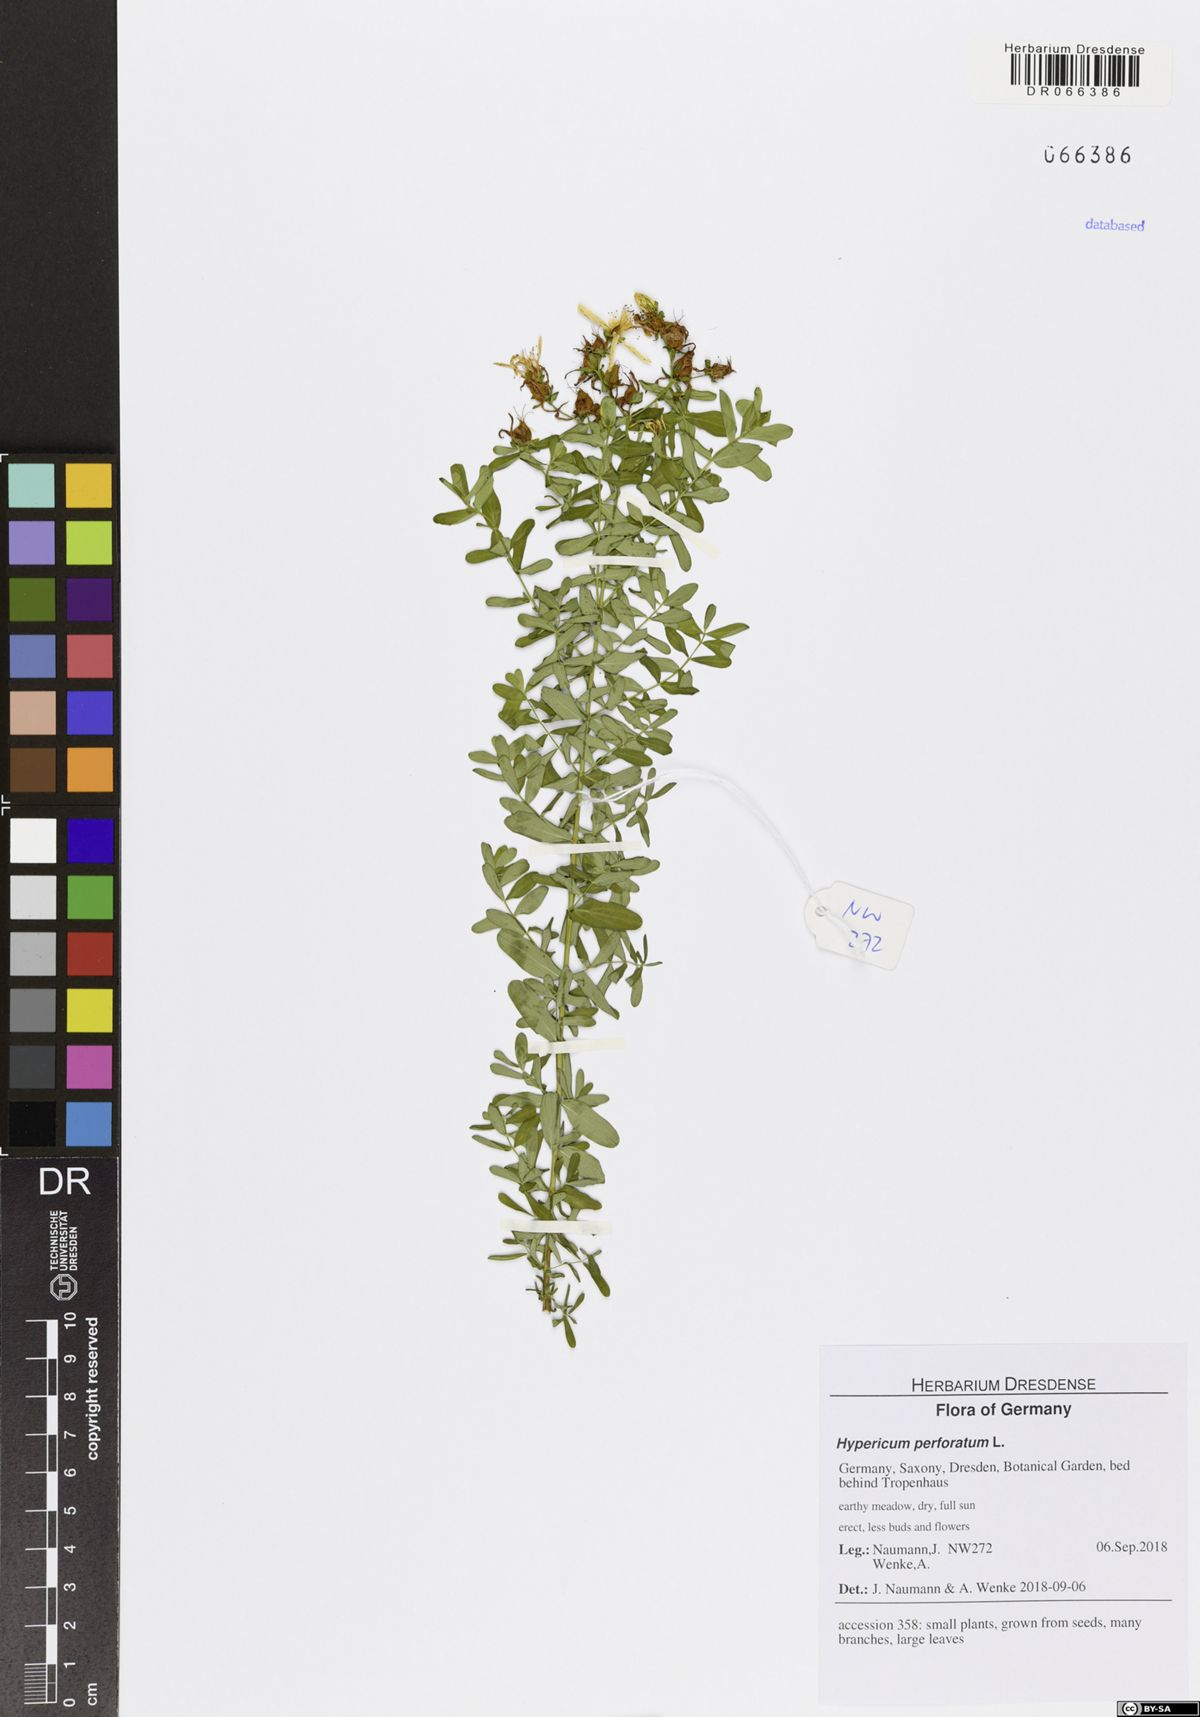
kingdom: Plantae
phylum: Tracheophyta
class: Magnoliopsida
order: Malpighiales
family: Hypericaceae
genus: Hypericum
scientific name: Hypericum perforatum
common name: Common st. johnswort
